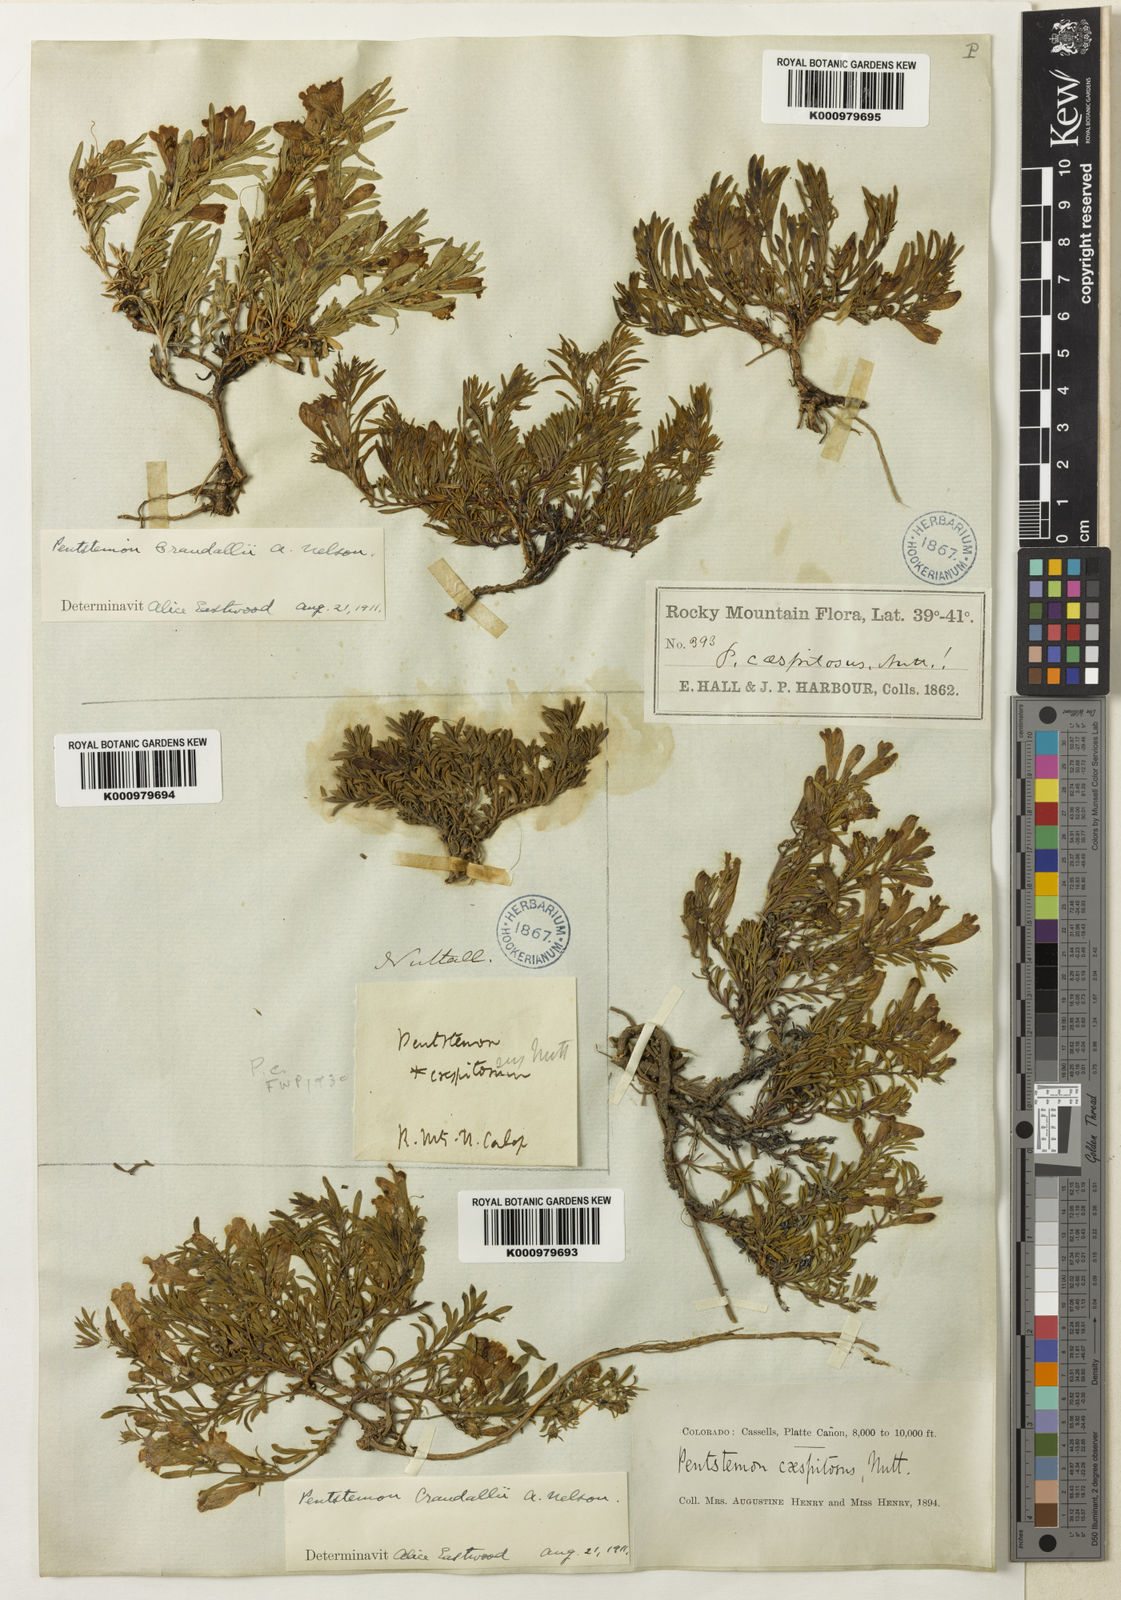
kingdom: Plantae
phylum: Tracheophyta
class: Magnoliopsida
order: Lamiales
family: Plantaginaceae
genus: Penstemon
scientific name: Penstemon caespitosus
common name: Mat penstemon
